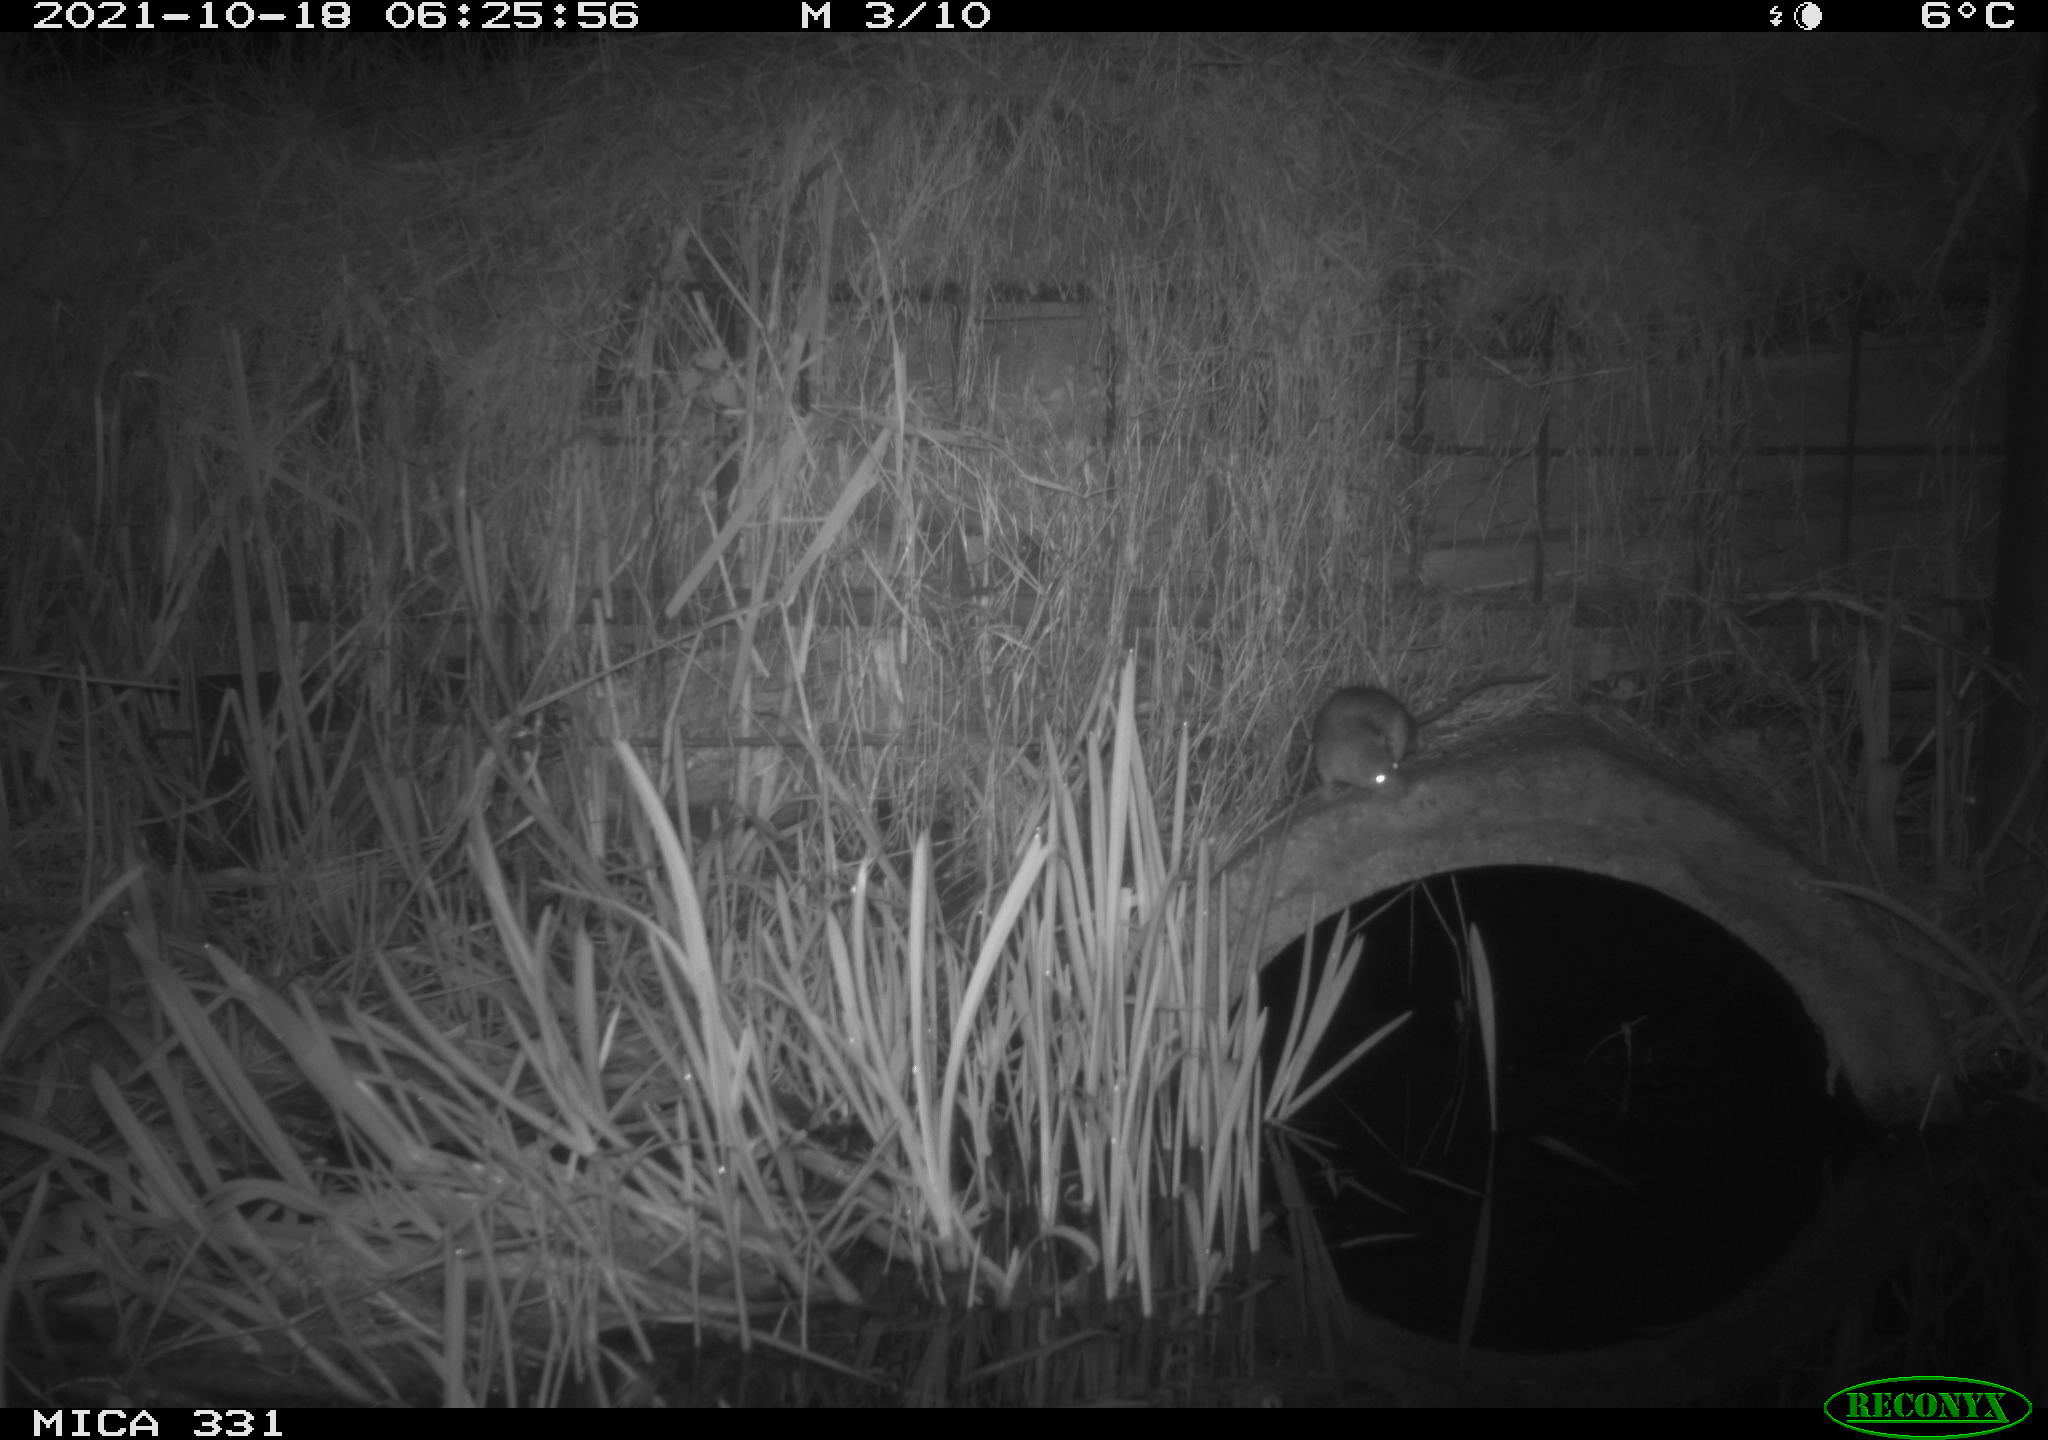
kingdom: Animalia
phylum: Chordata
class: Mammalia
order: Rodentia
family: Muridae
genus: Rattus
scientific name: Rattus norvegicus
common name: Brown rat
